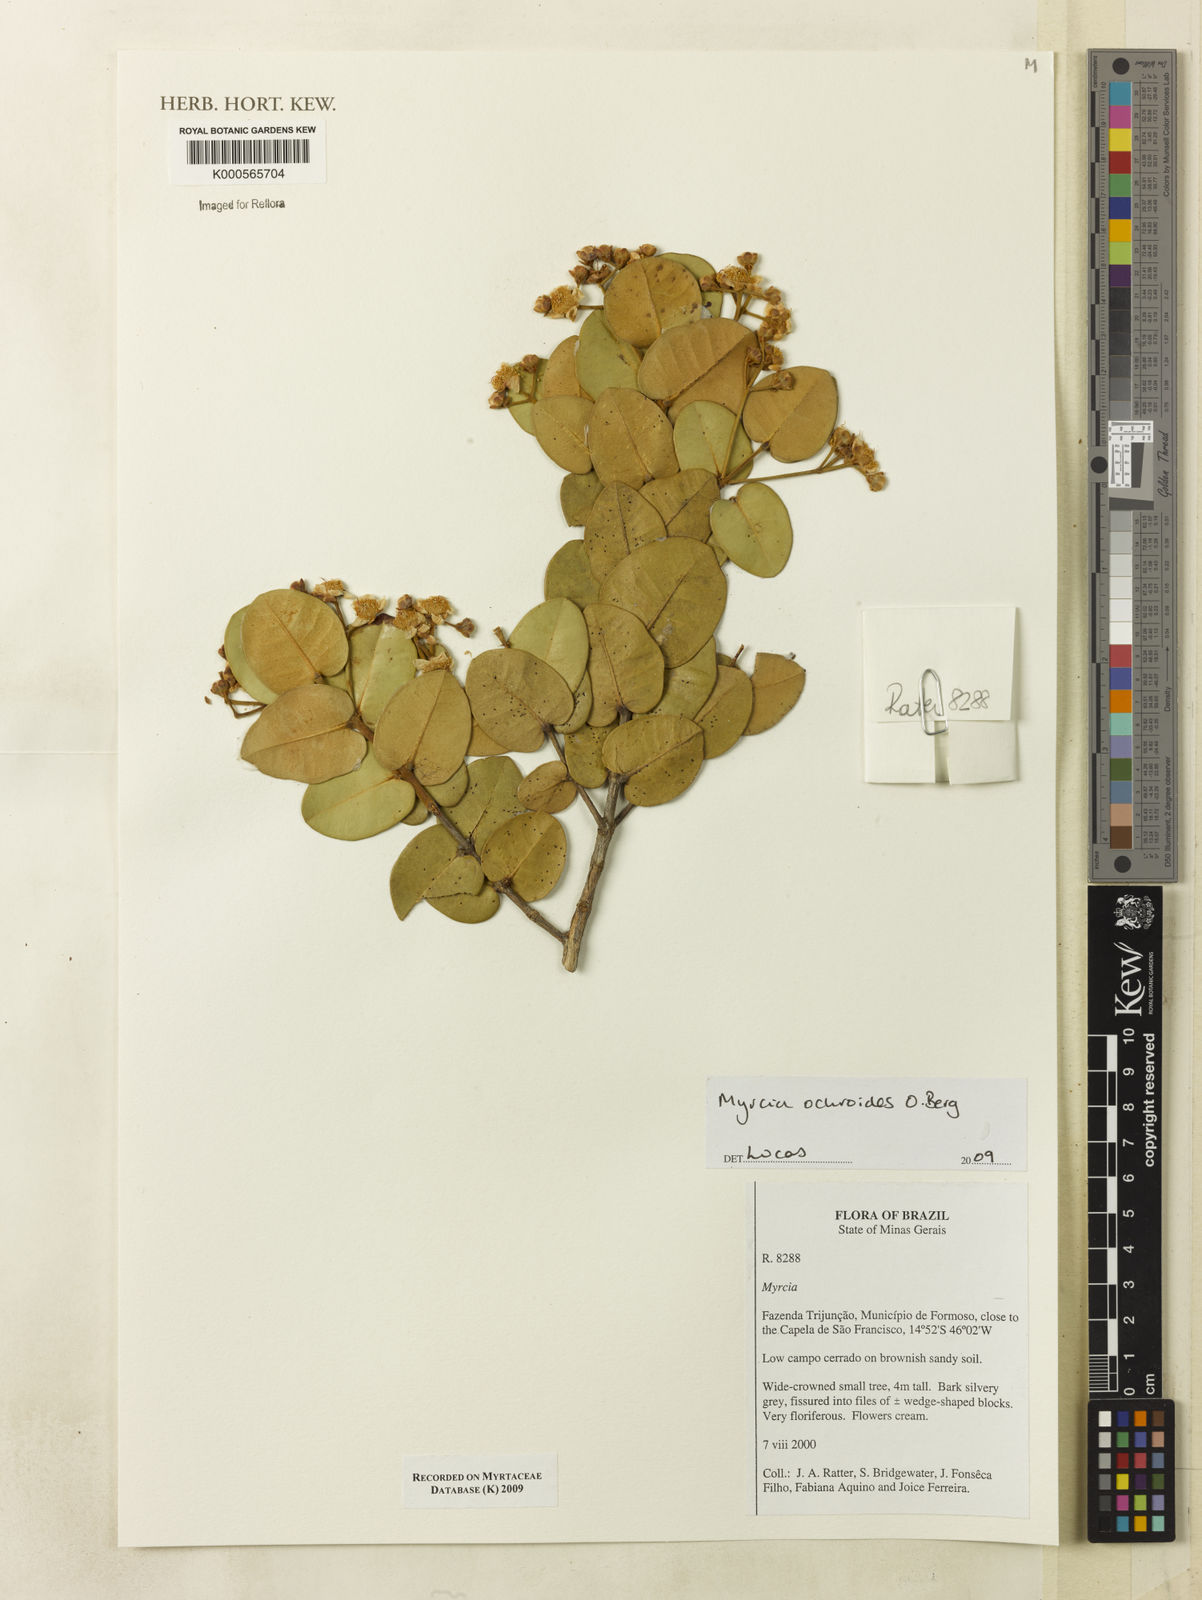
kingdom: Plantae
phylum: Tracheophyta
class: Magnoliopsida
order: Myrtales
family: Myrtaceae
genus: Myrcia
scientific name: Myrcia ochroides
